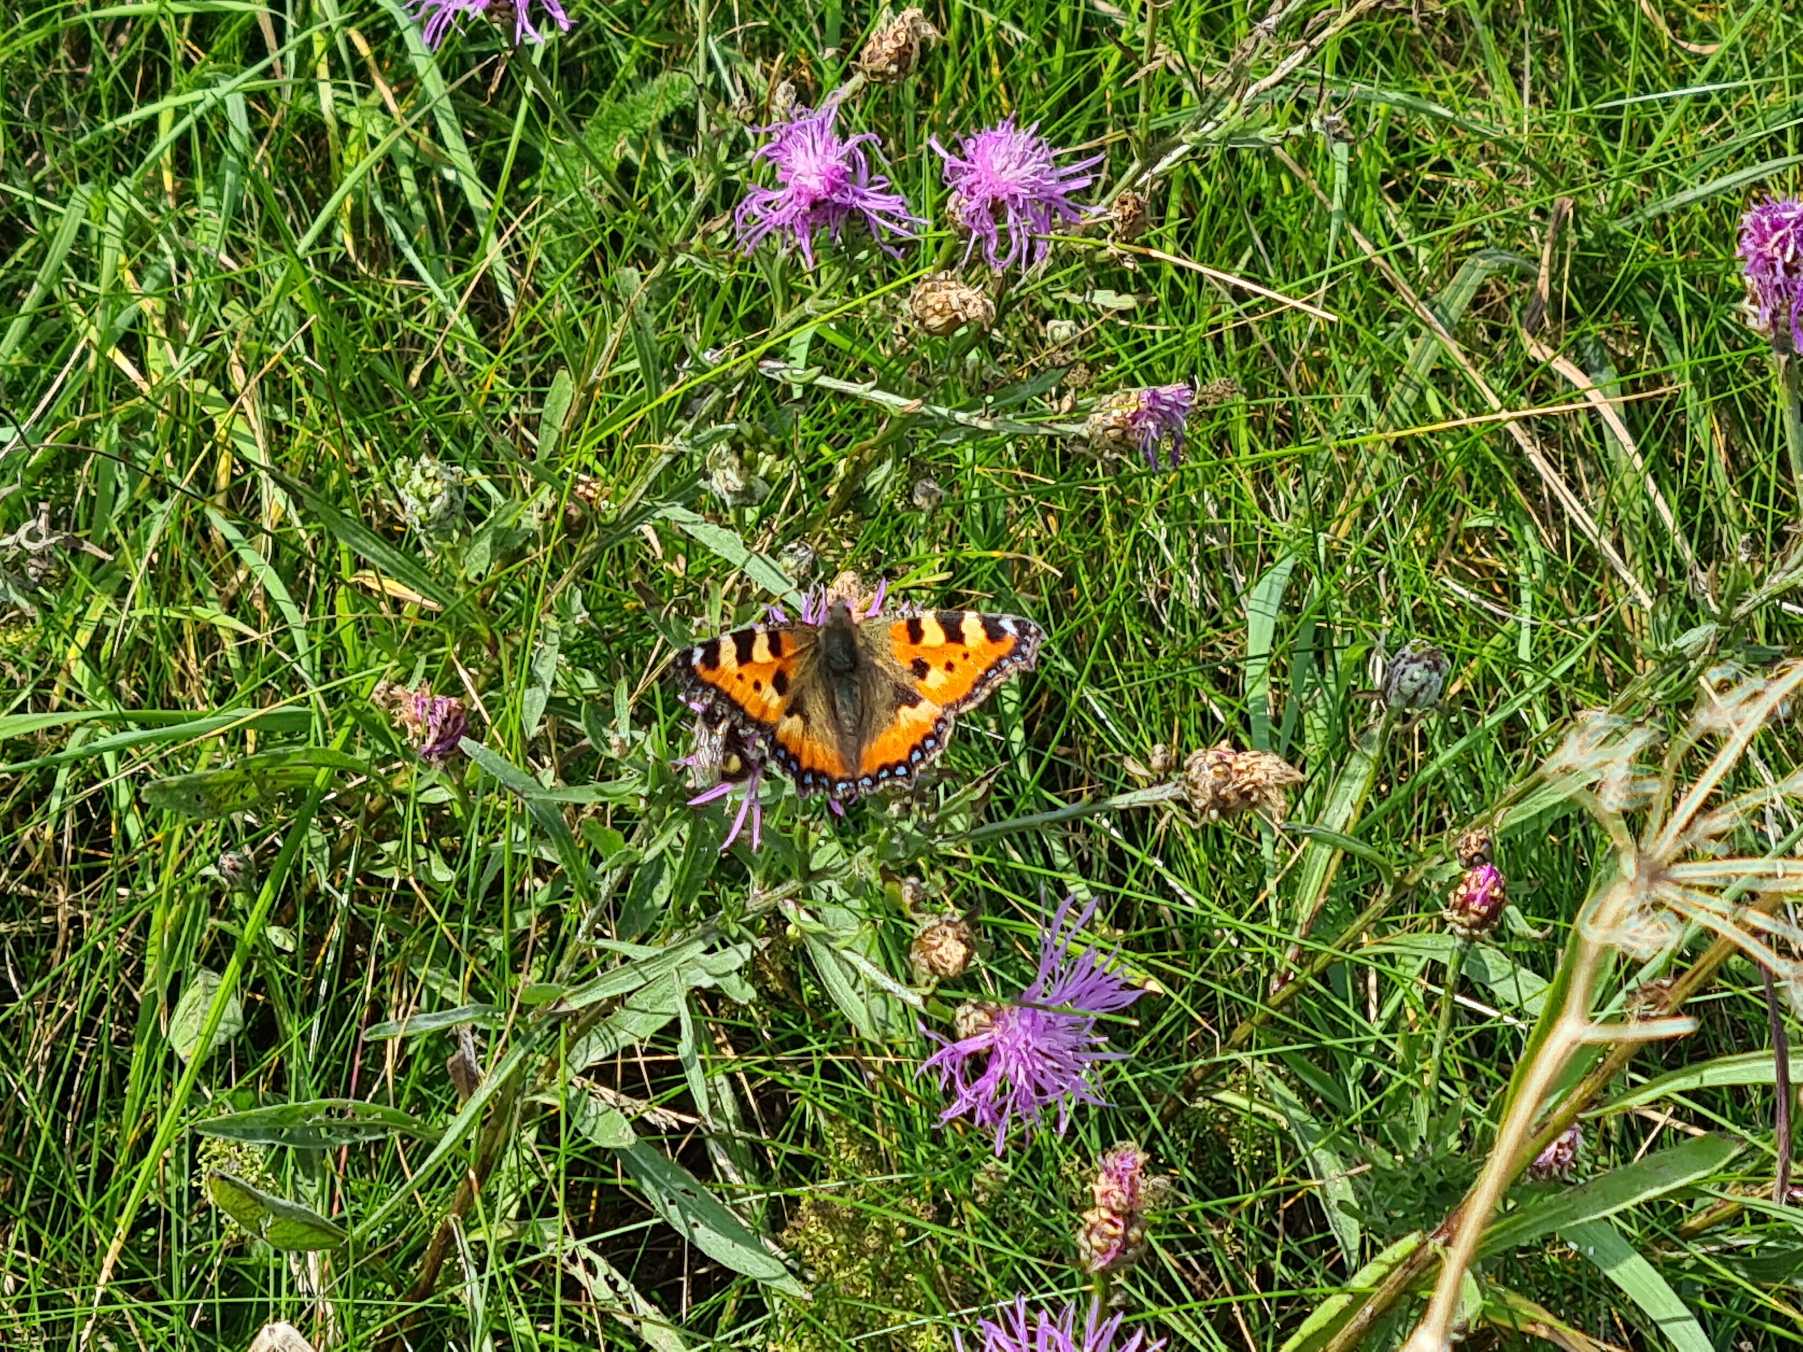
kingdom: Animalia
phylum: Arthropoda
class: Insecta
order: Lepidoptera
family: Nymphalidae
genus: Aglais
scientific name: Aglais urticae
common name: Nældens takvinge
